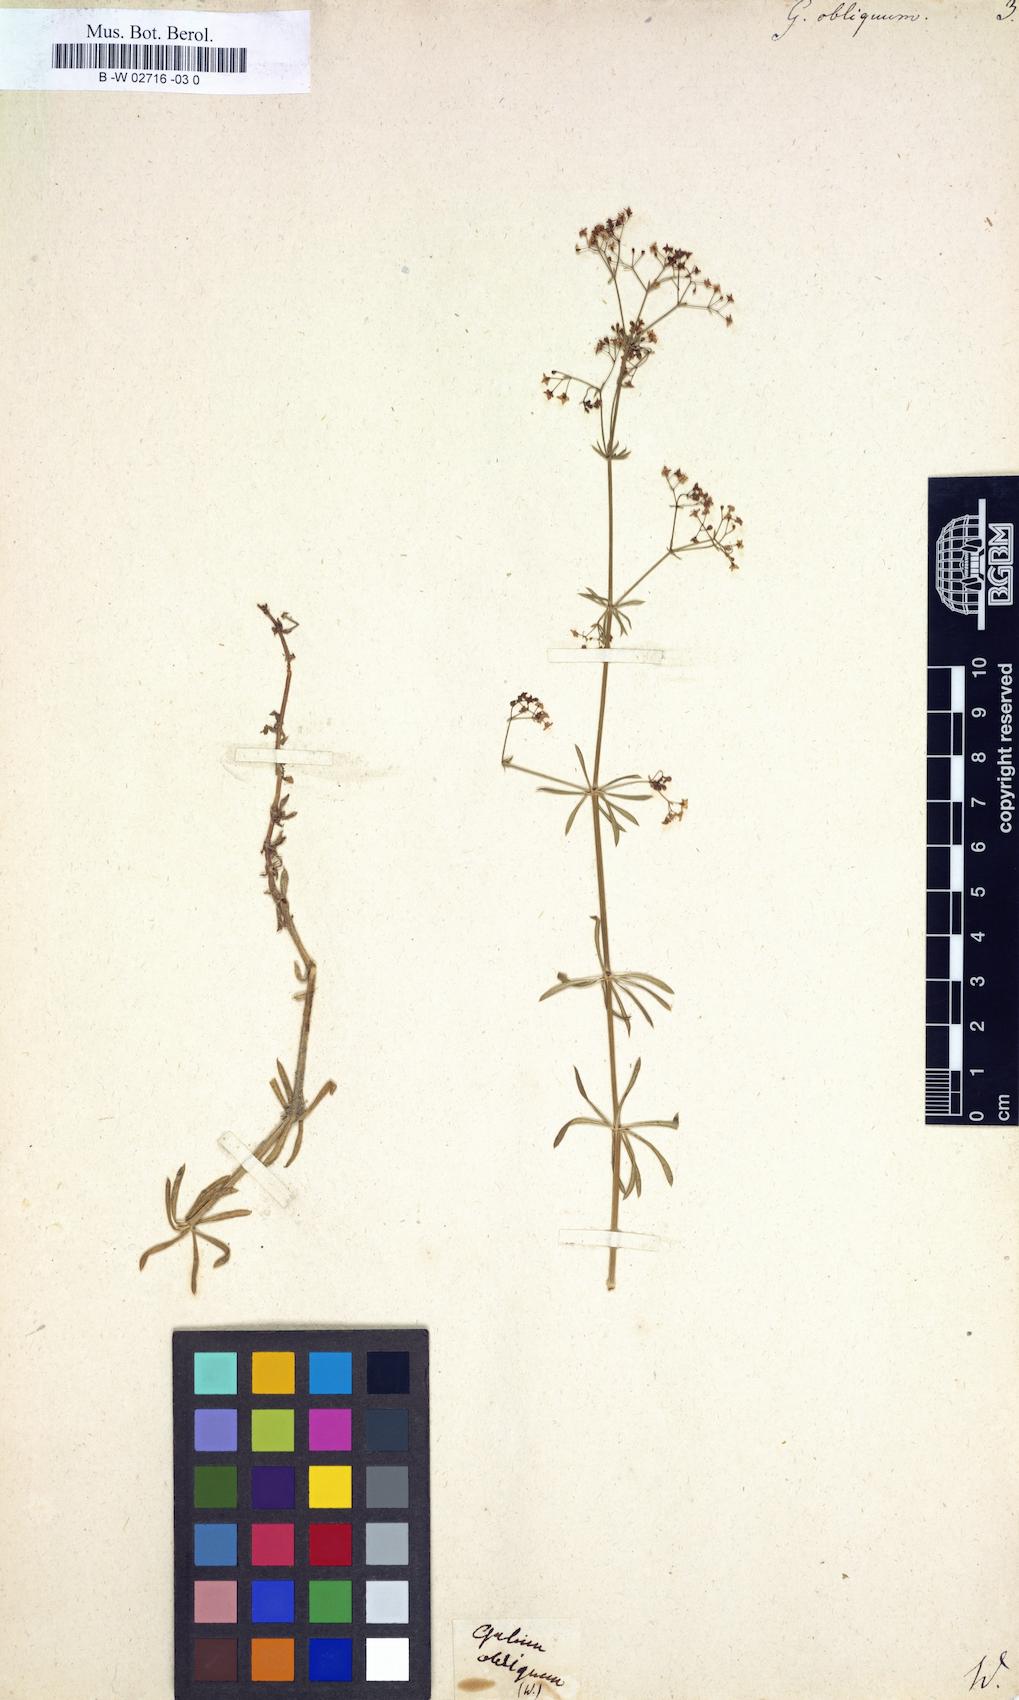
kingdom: Plantae
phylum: Tracheophyta
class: Magnoliopsida
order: Gentianales
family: Rubiaceae
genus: Galium
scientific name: Galium obliquum
